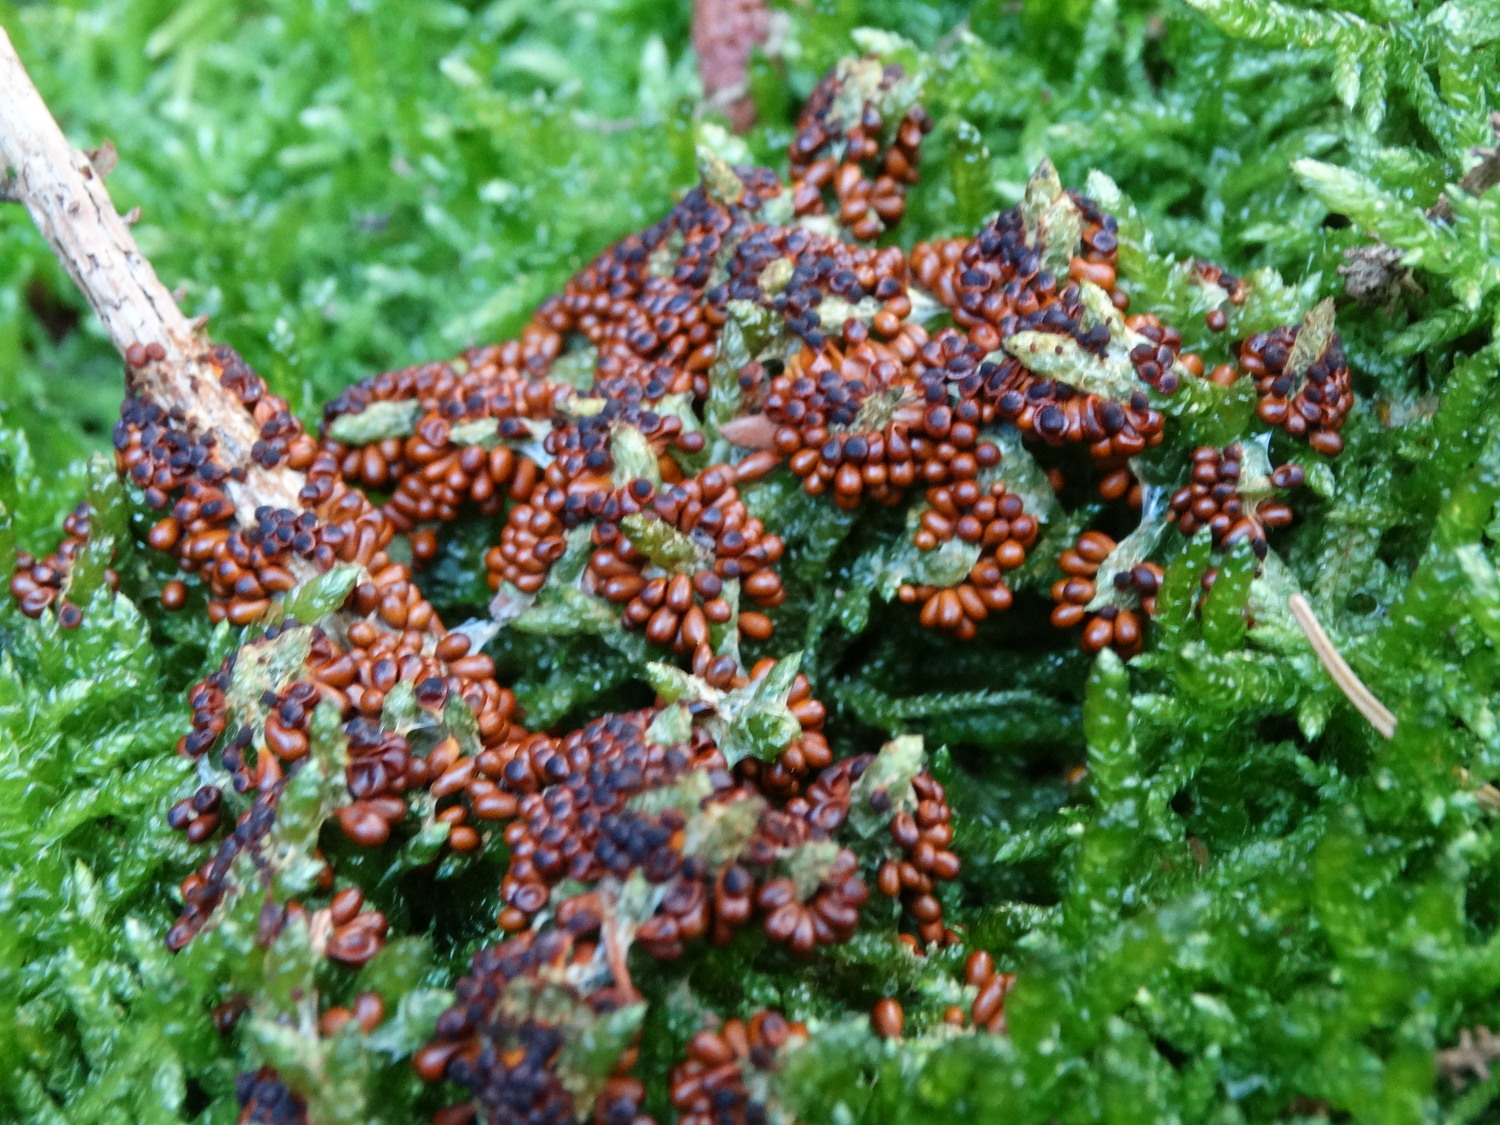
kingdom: Protozoa
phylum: Mycetozoa
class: Myxomycetes
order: Physarales
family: Physaraceae
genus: Leocarpus
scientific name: Leocarpus fragilis
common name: poleret glatfrø
